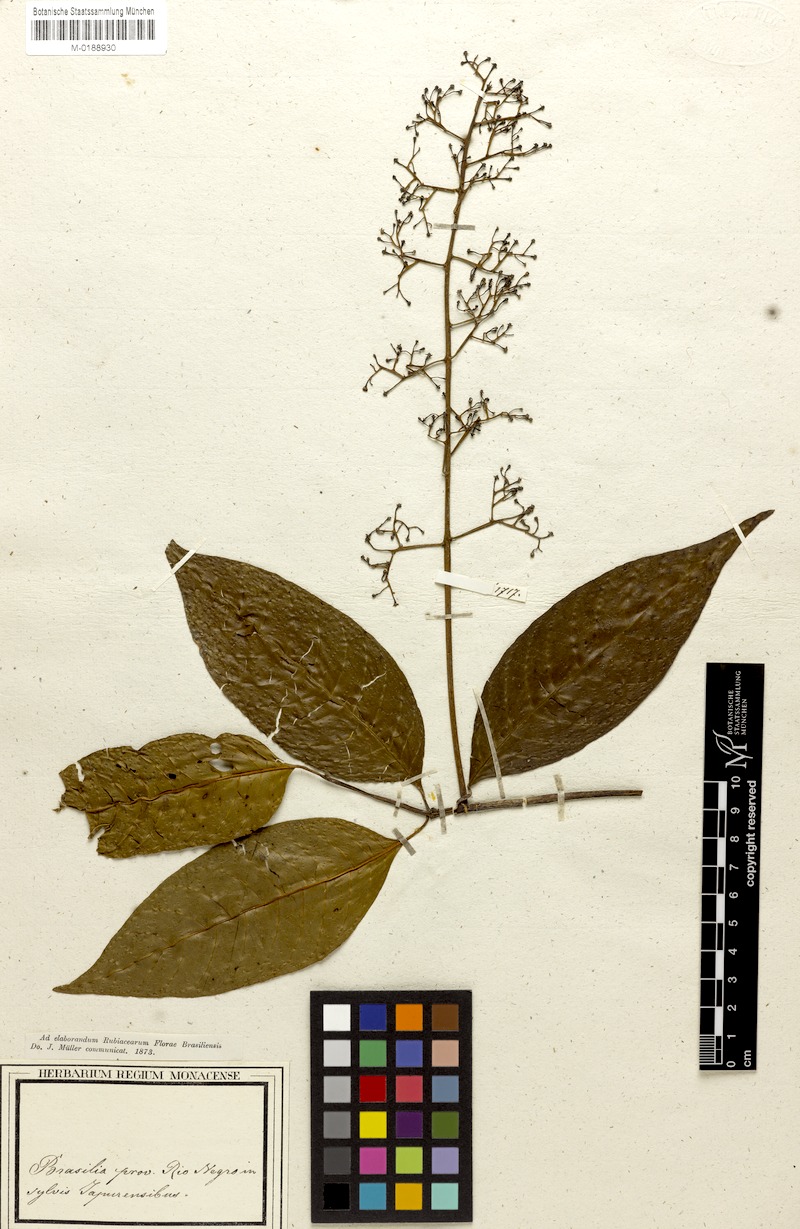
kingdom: Plantae
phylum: Tracheophyta
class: Magnoliopsida
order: Gentianales
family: Rubiaceae
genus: Palicourea
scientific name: Palicourea anisoloba
